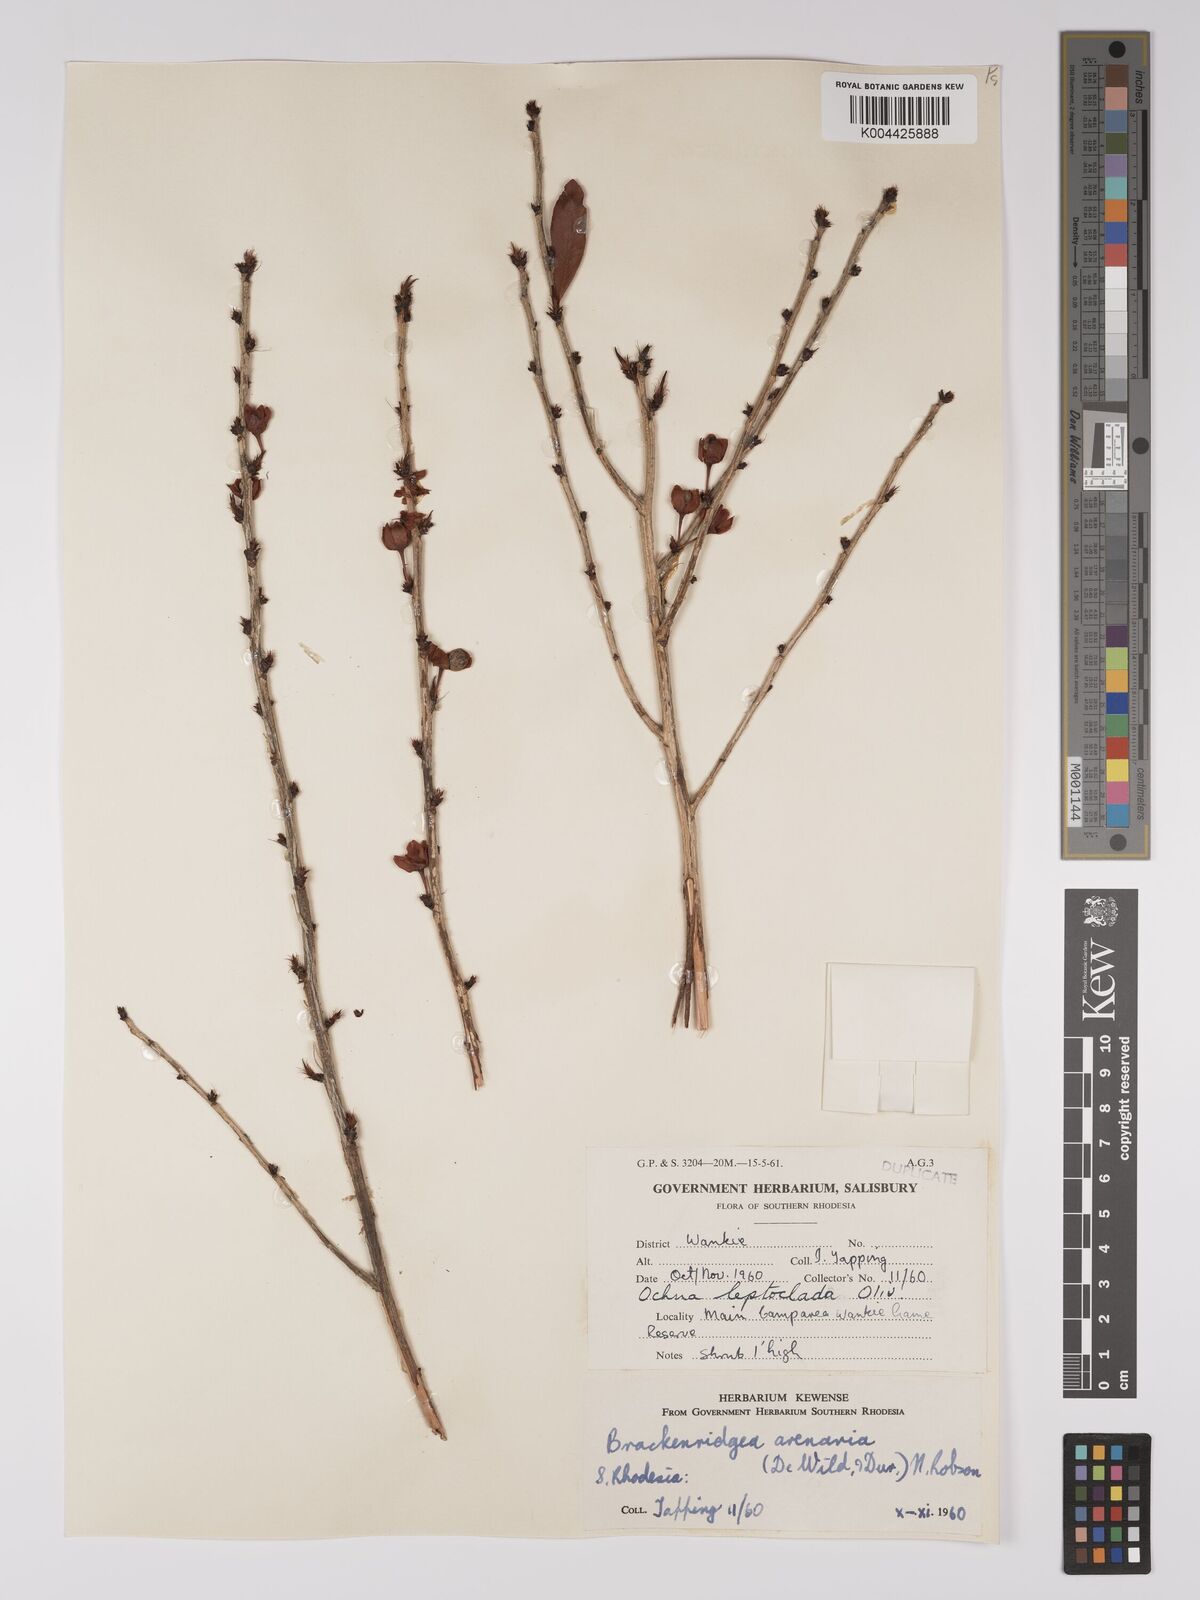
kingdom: Plantae
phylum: Tracheophyta
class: Magnoliopsida
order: Malpighiales
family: Ochnaceae
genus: Ochna
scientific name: Ochna arenaria
